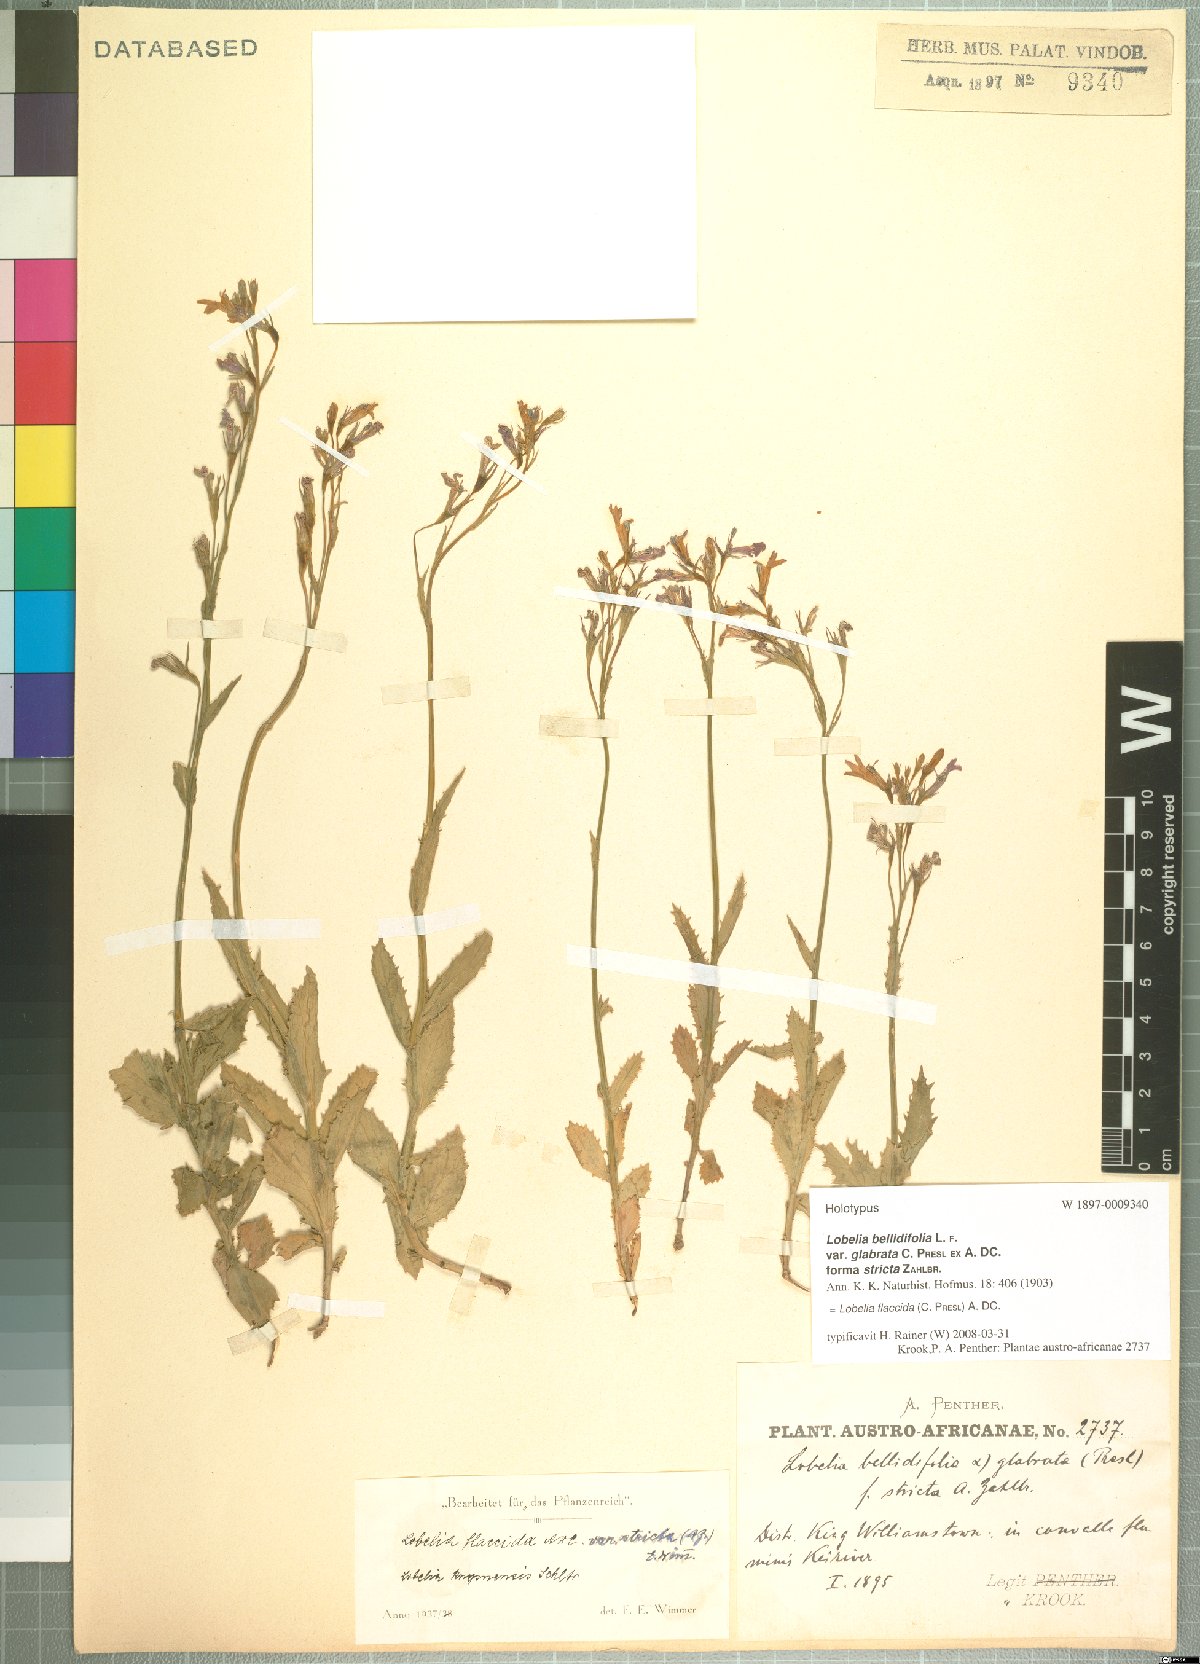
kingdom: Plantae
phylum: Tracheophyta
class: Magnoliopsida
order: Asterales
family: Campanulaceae
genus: Lobelia
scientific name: Lobelia flaccida
